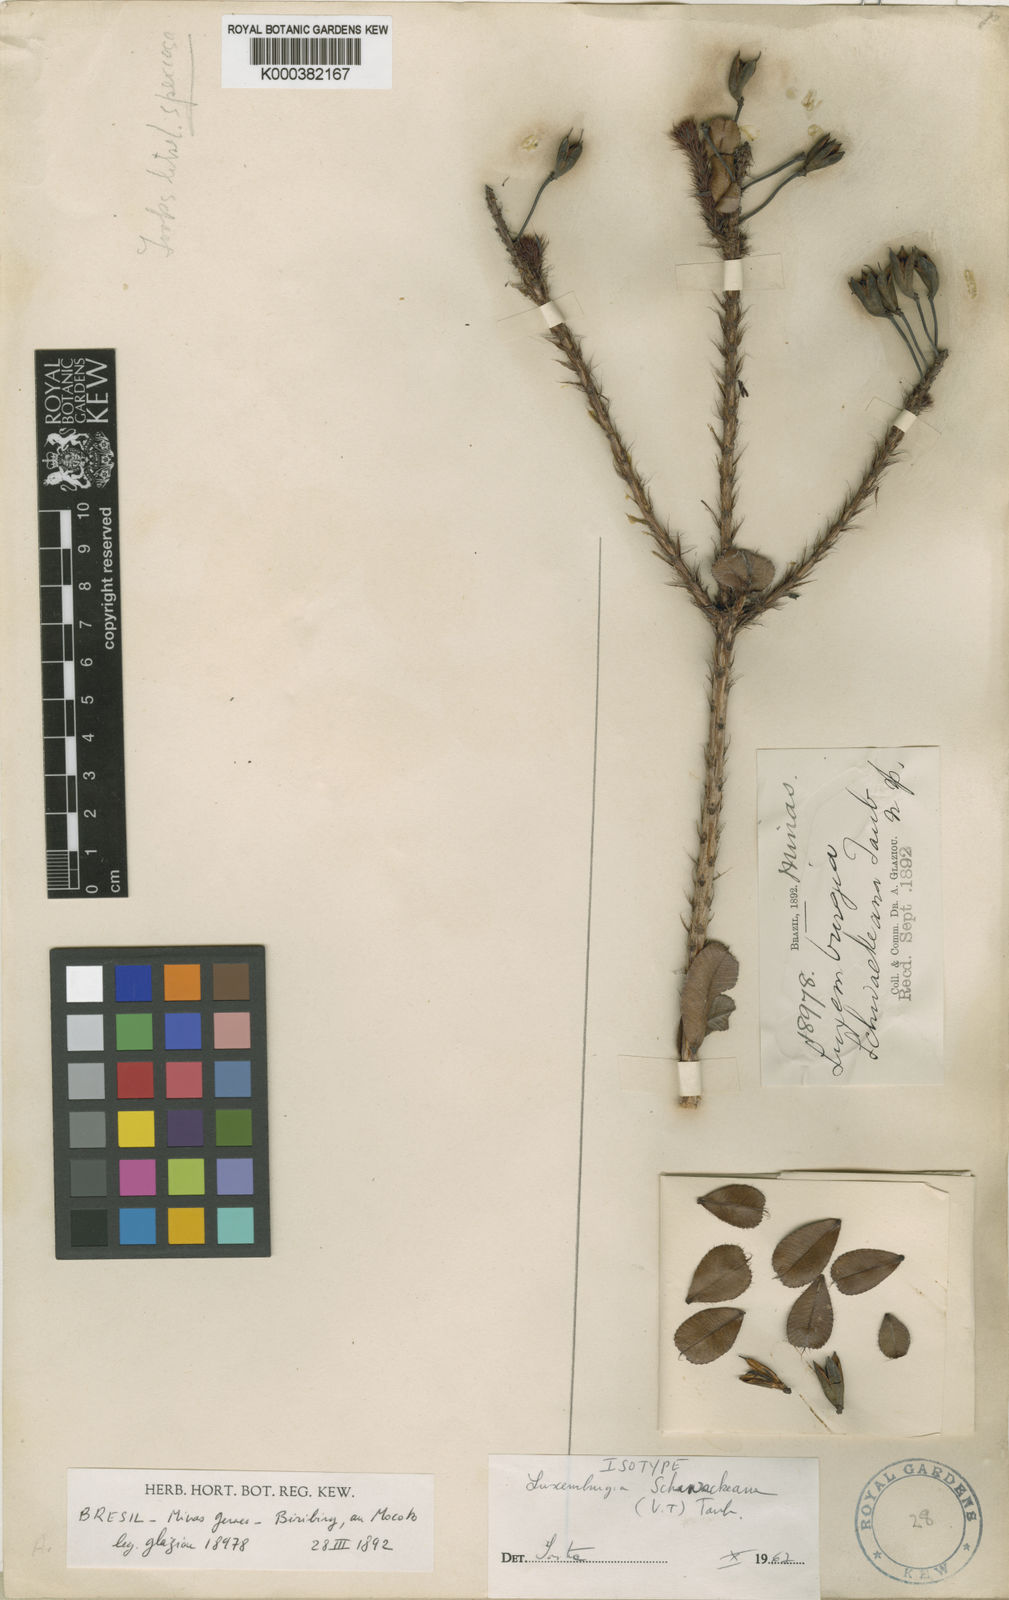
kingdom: Plantae
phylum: Tracheophyta
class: Magnoliopsida
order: Malpighiales
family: Ochnaceae
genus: Luxemburgia
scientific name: Luxemburgia schwackeana
